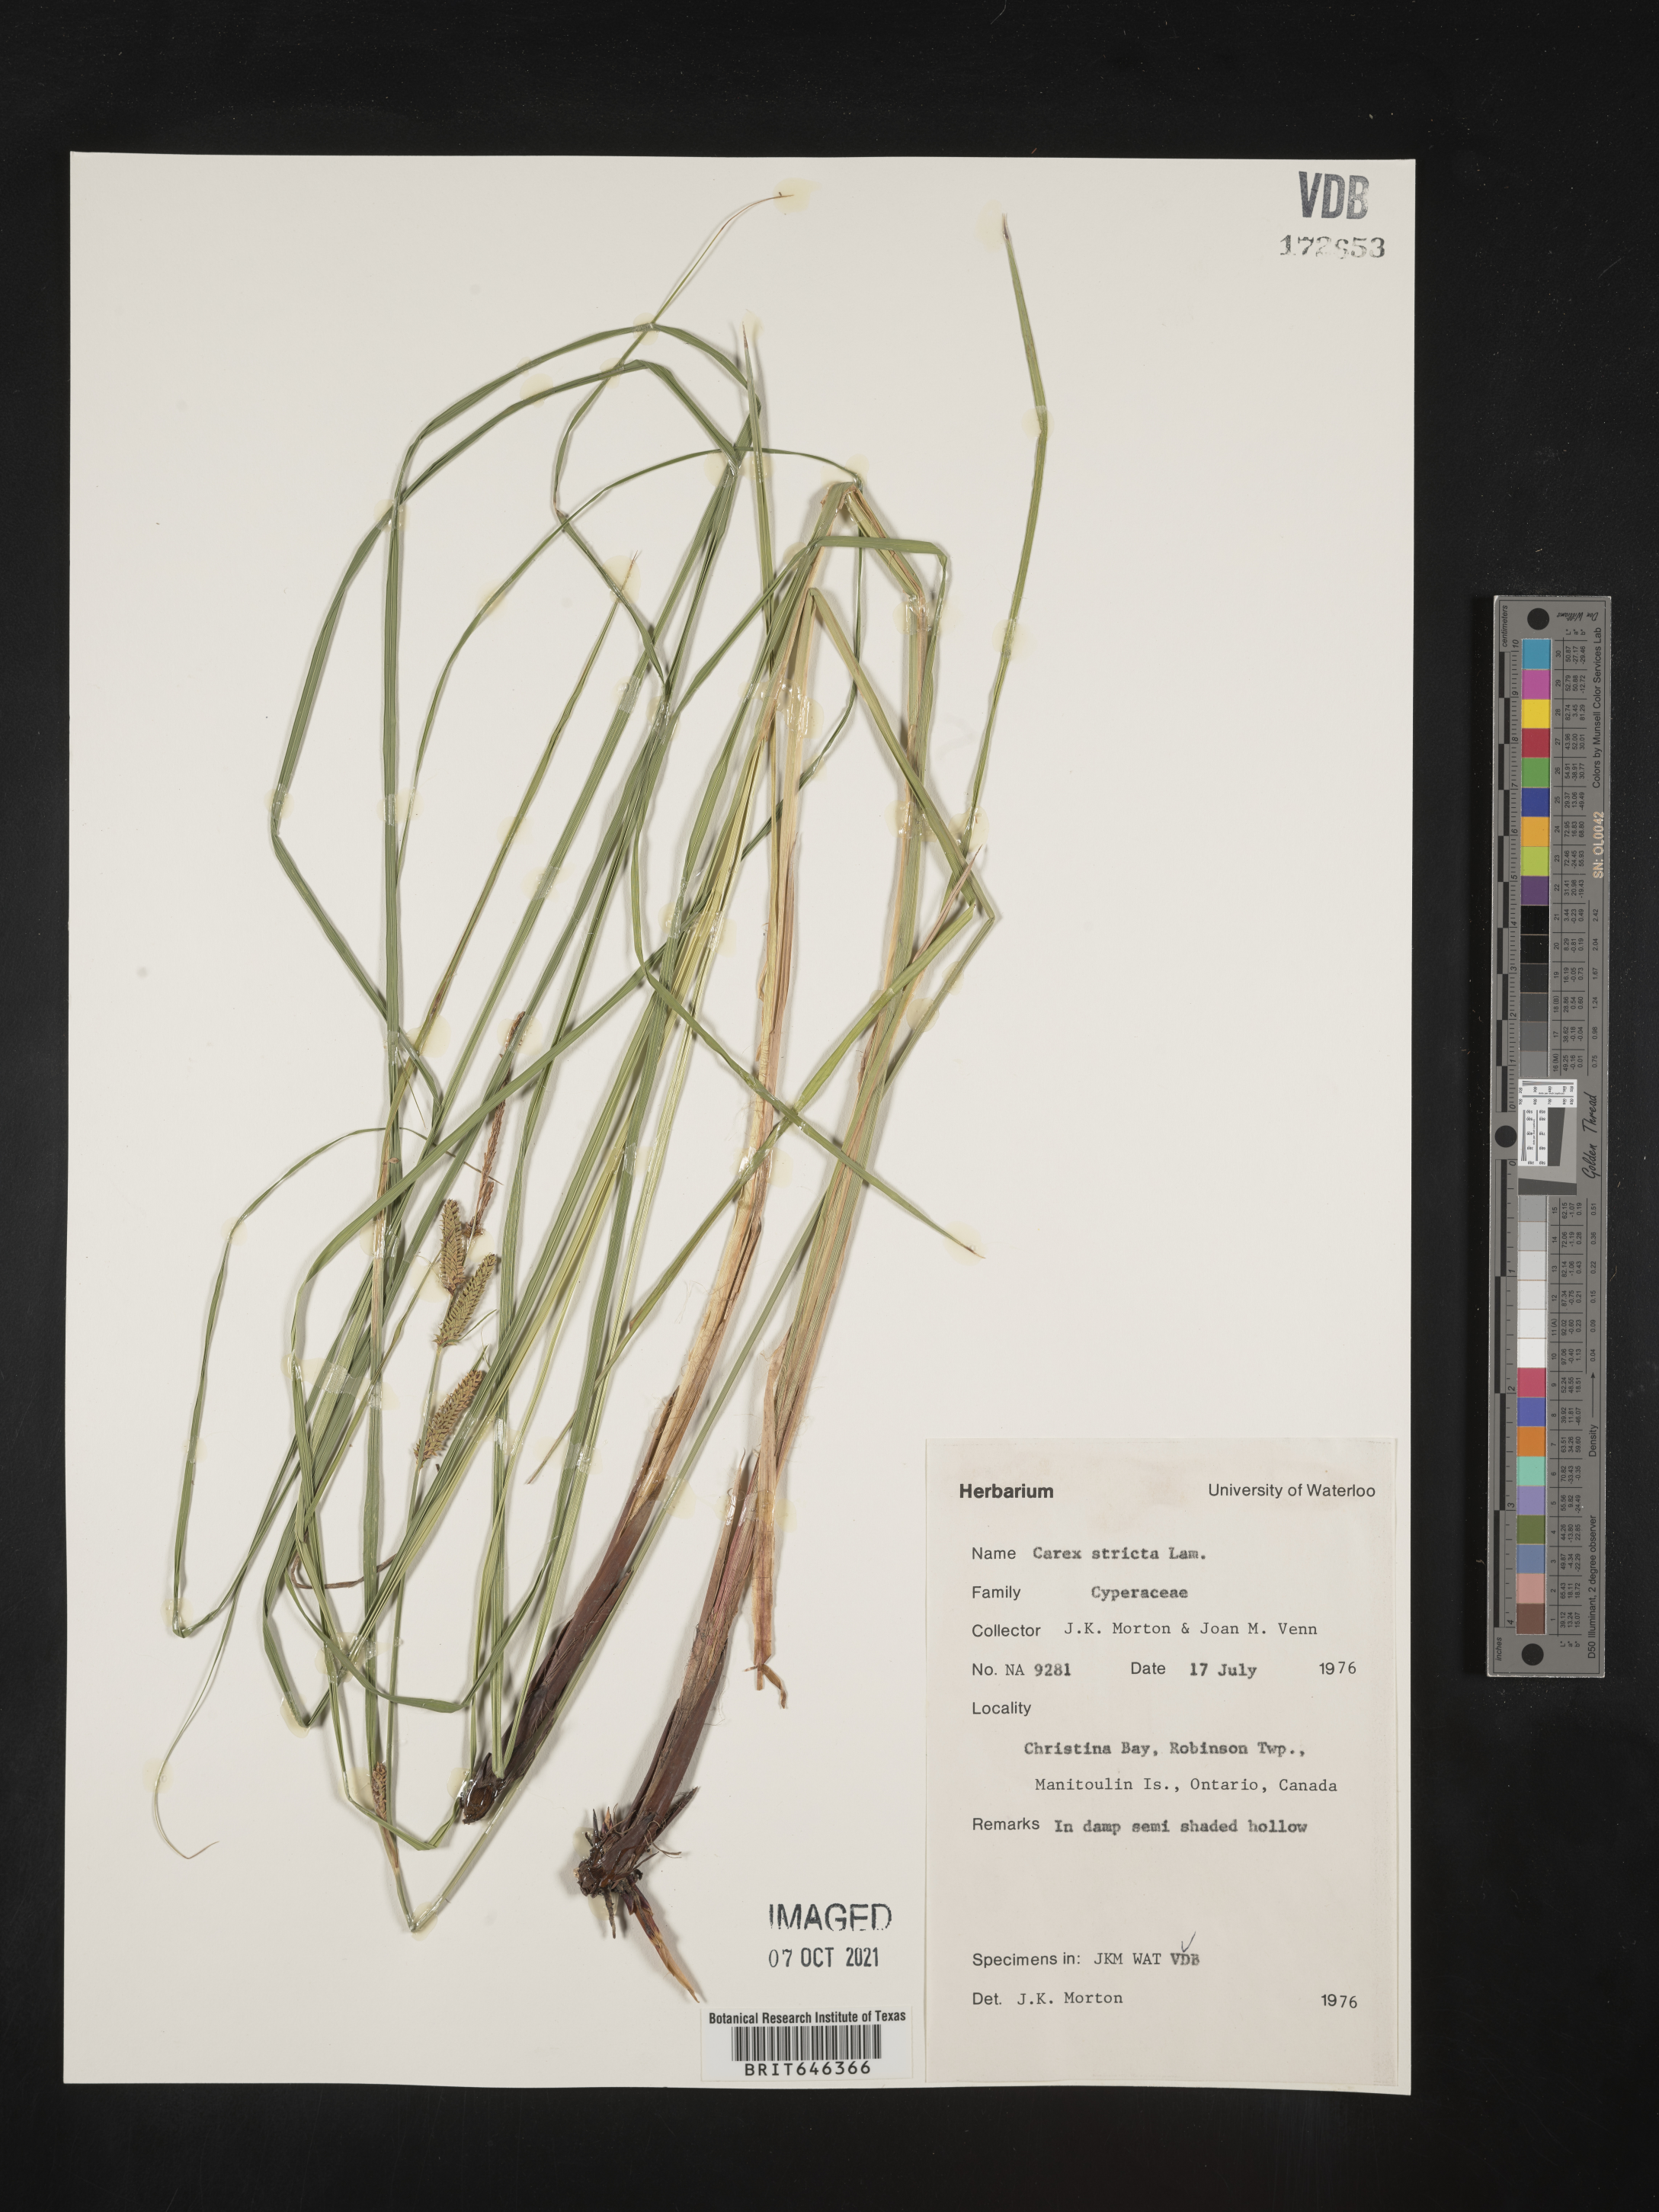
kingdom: Plantae
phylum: Tracheophyta
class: Liliopsida
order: Poales
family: Cyperaceae
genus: Carex
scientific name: Carex stricta
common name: Hummock sedge
